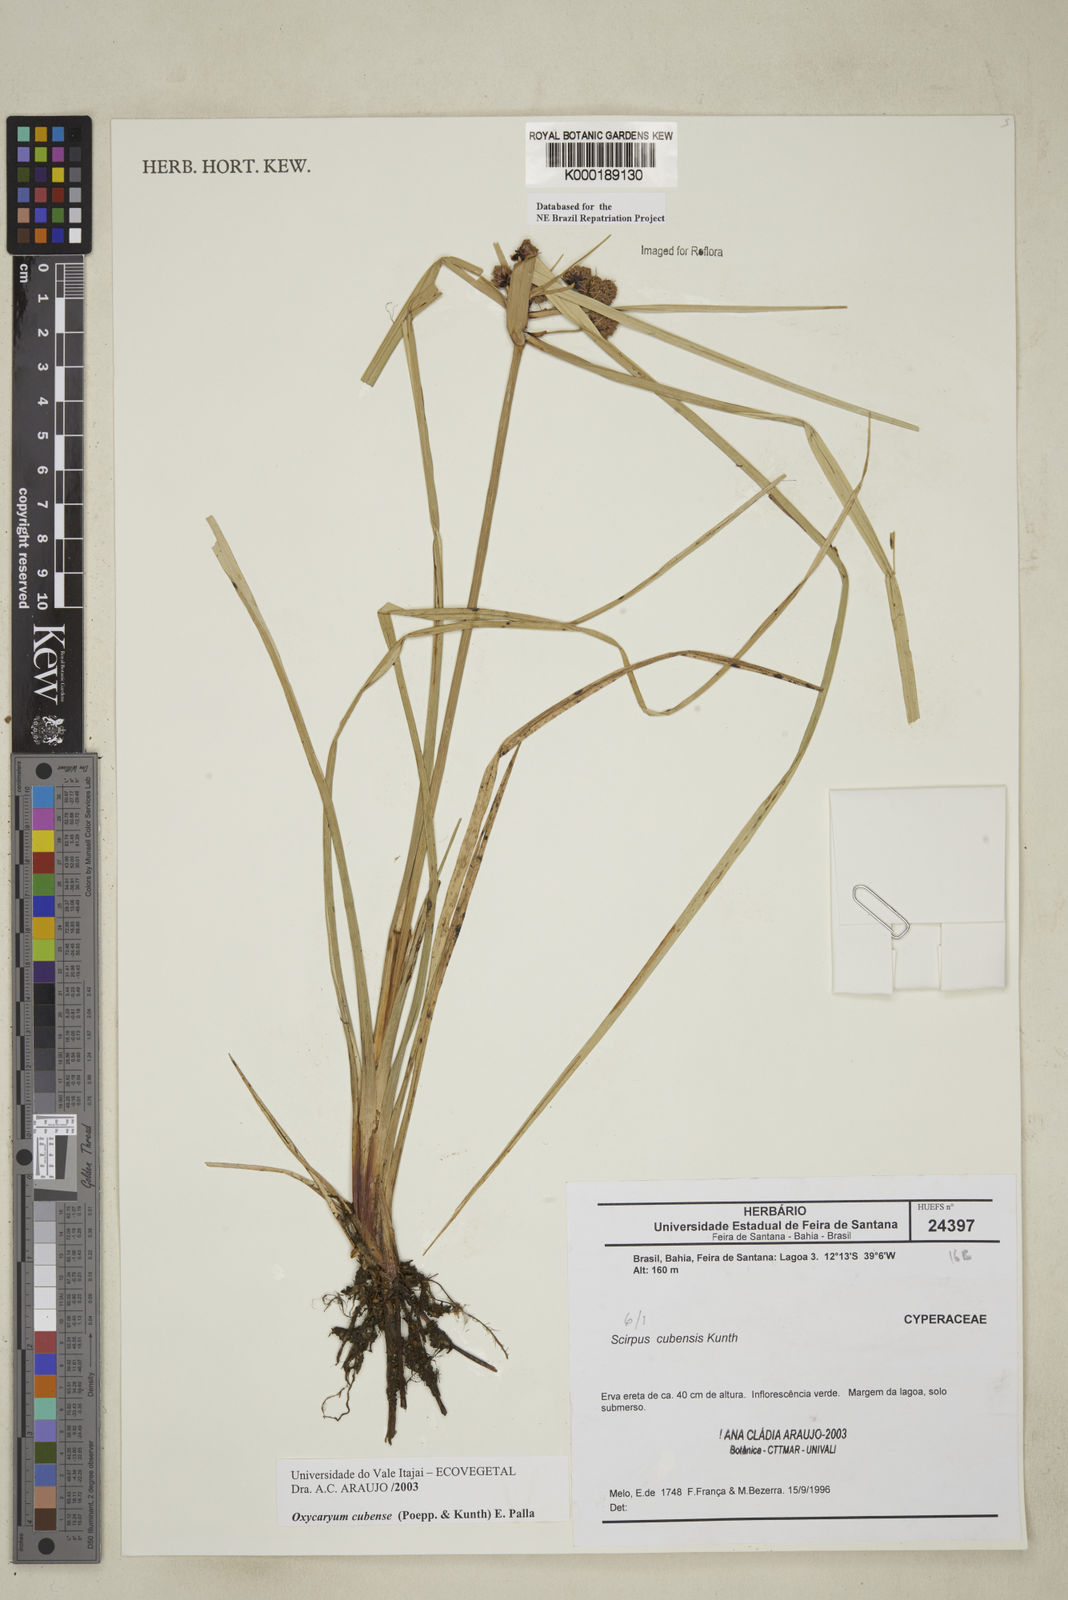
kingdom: Plantae
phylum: Tracheophyta
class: Liliopsida
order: Poales
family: Cyperaceae
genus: Cyperus
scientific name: Cyperus blepharoleptos
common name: Cuban bulrush
